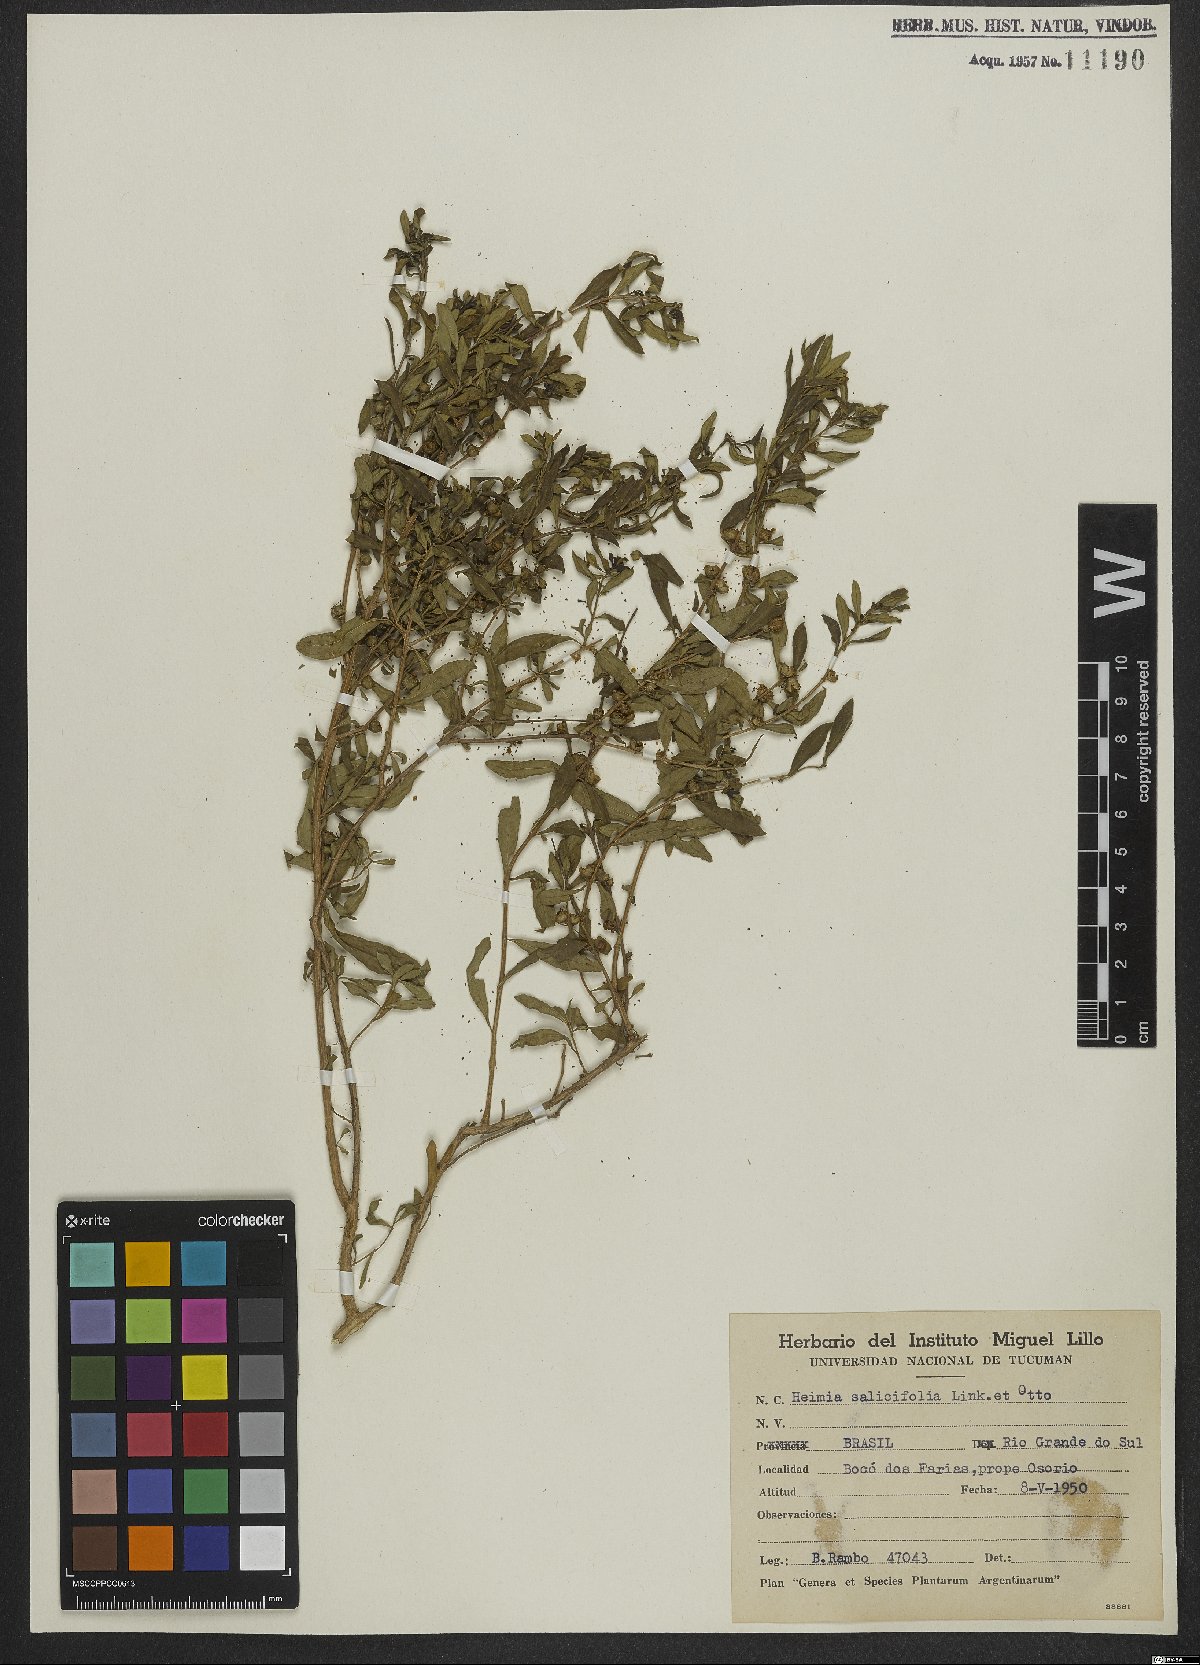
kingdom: Plantae
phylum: Tracheophyta
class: Magnoliopsida
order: Myrtales
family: Lythraceae
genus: Heimia
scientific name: Heimia salicifolia
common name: Willow-leaf heimia
